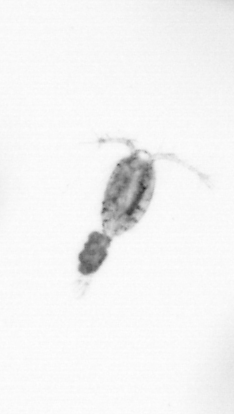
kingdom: Animalia
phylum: Arthropoda
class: Copepoda
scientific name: Copepoda
